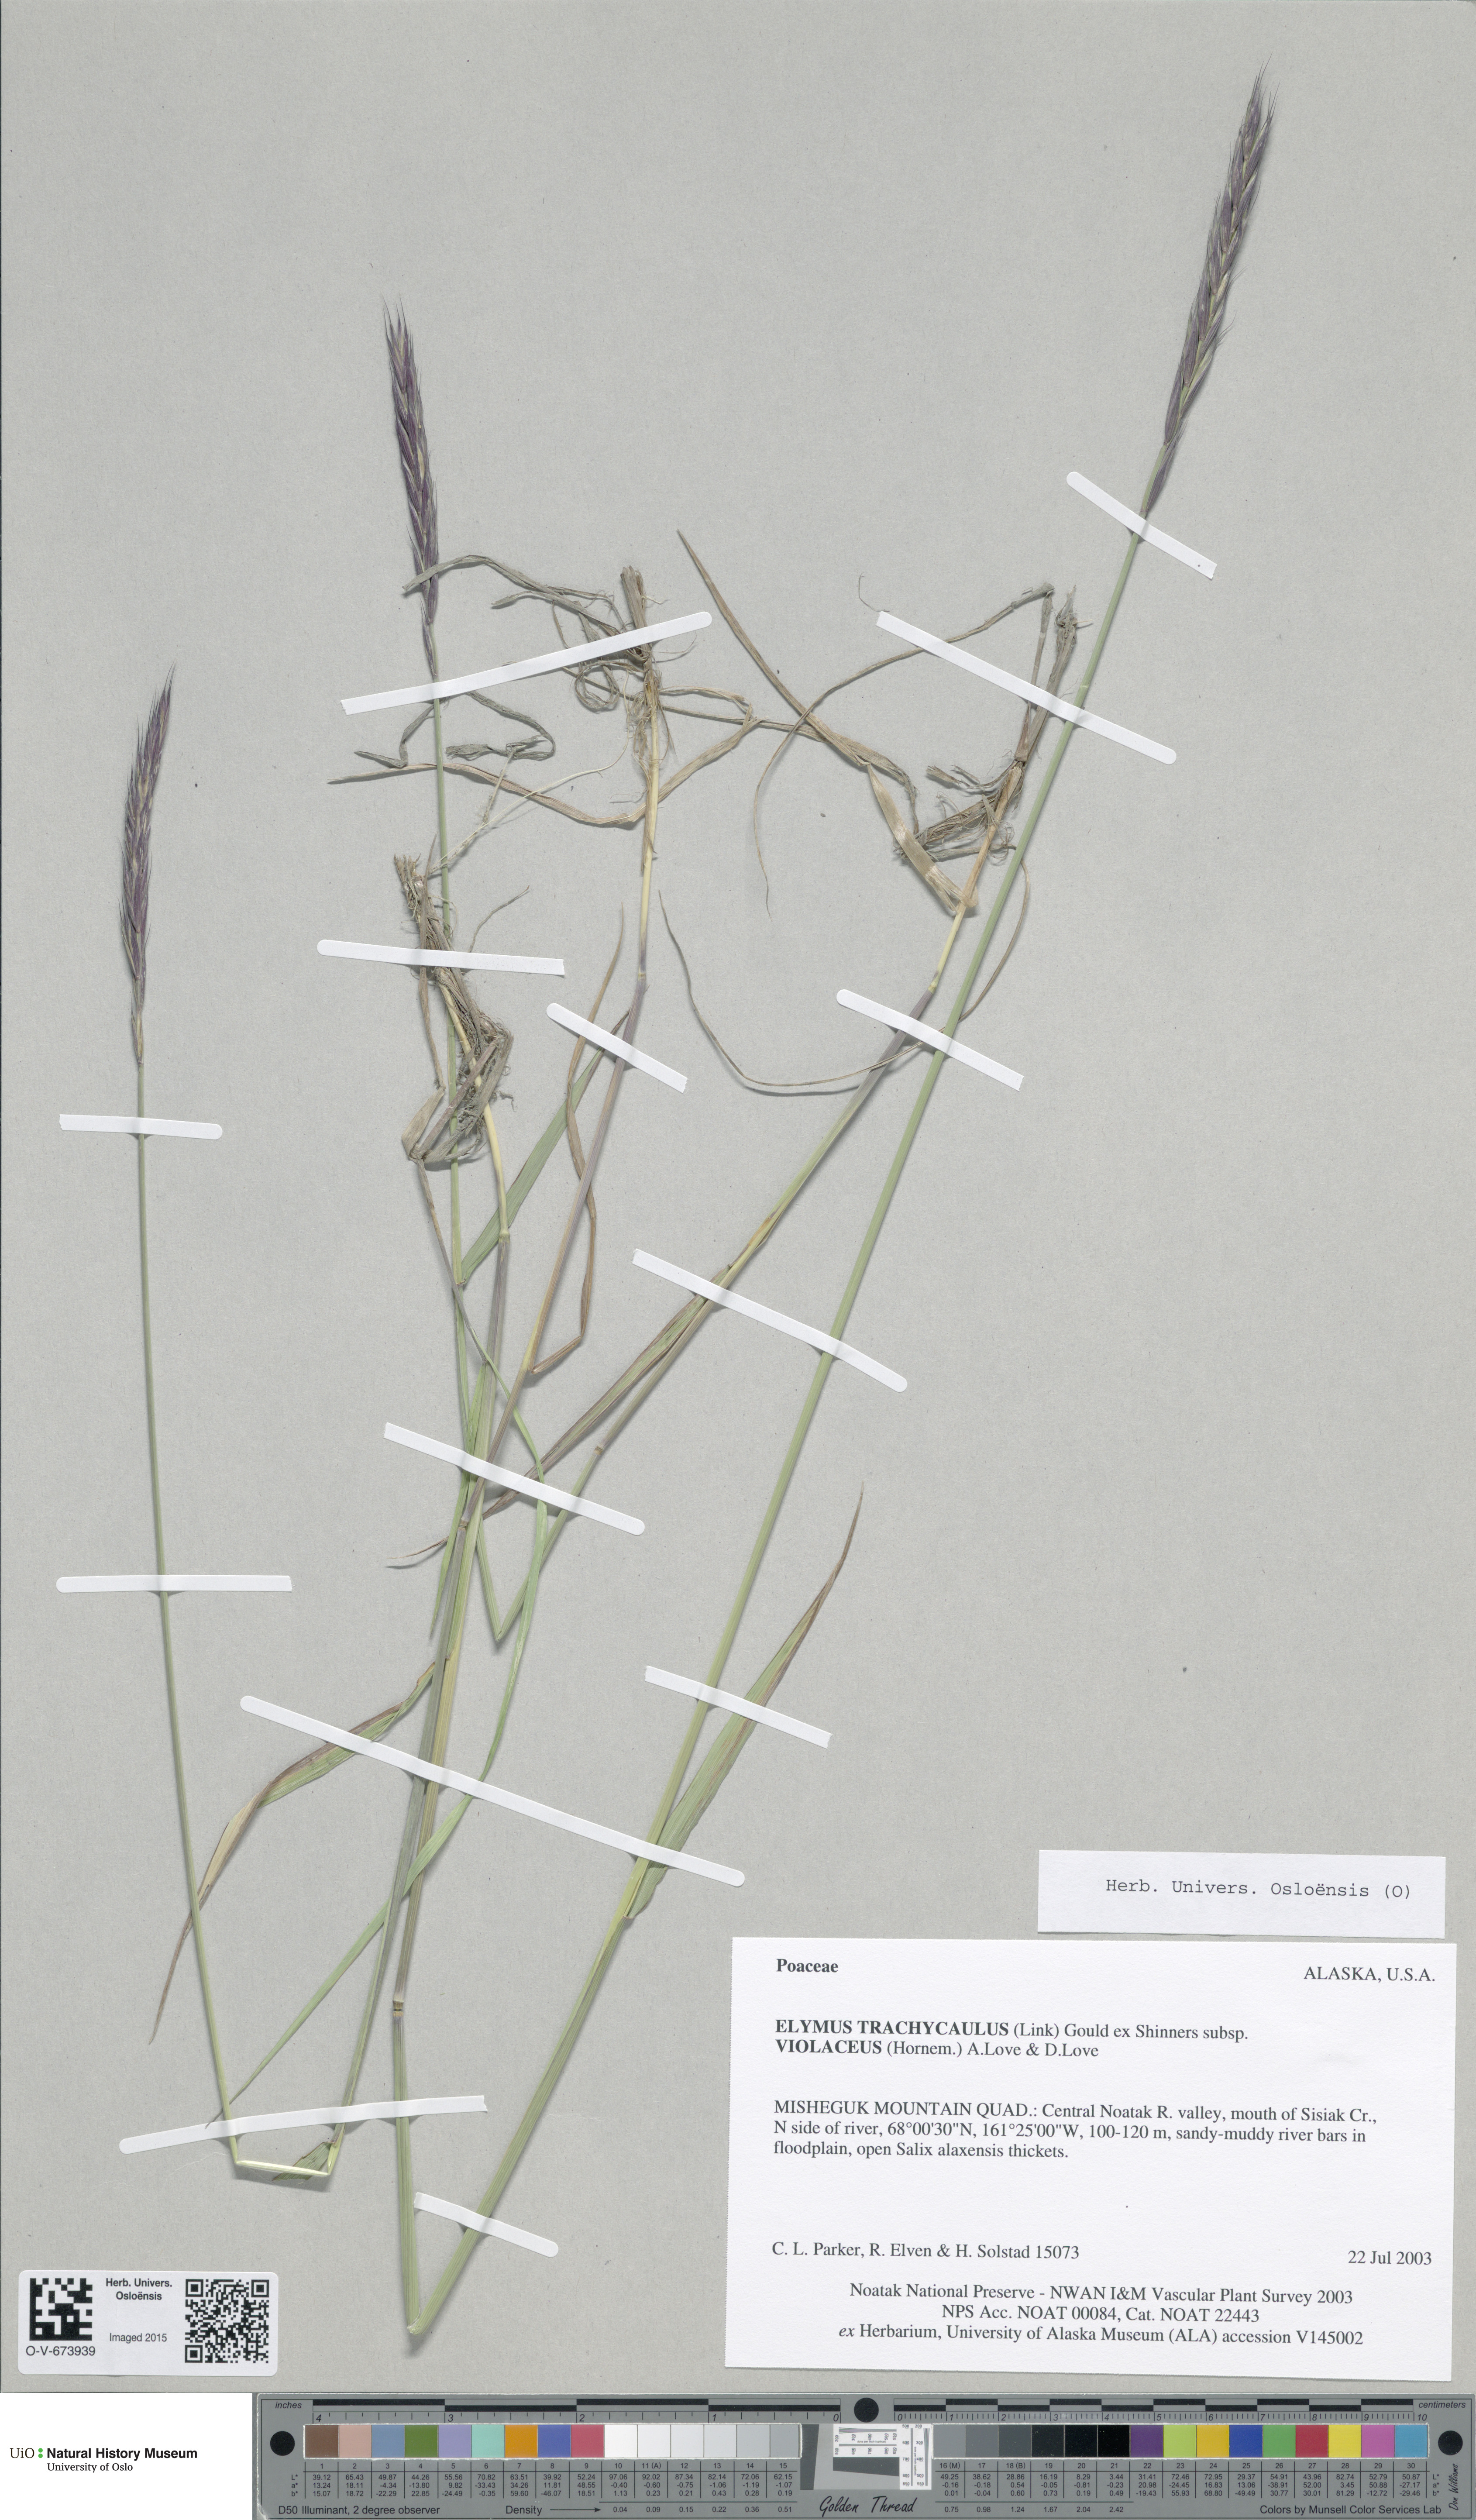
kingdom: Plantae
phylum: Tracheophyta
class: Liliopsida
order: Poales
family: Poaceae
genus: Elymus
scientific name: Elymus violaceus
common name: Arctic wheatgrass
